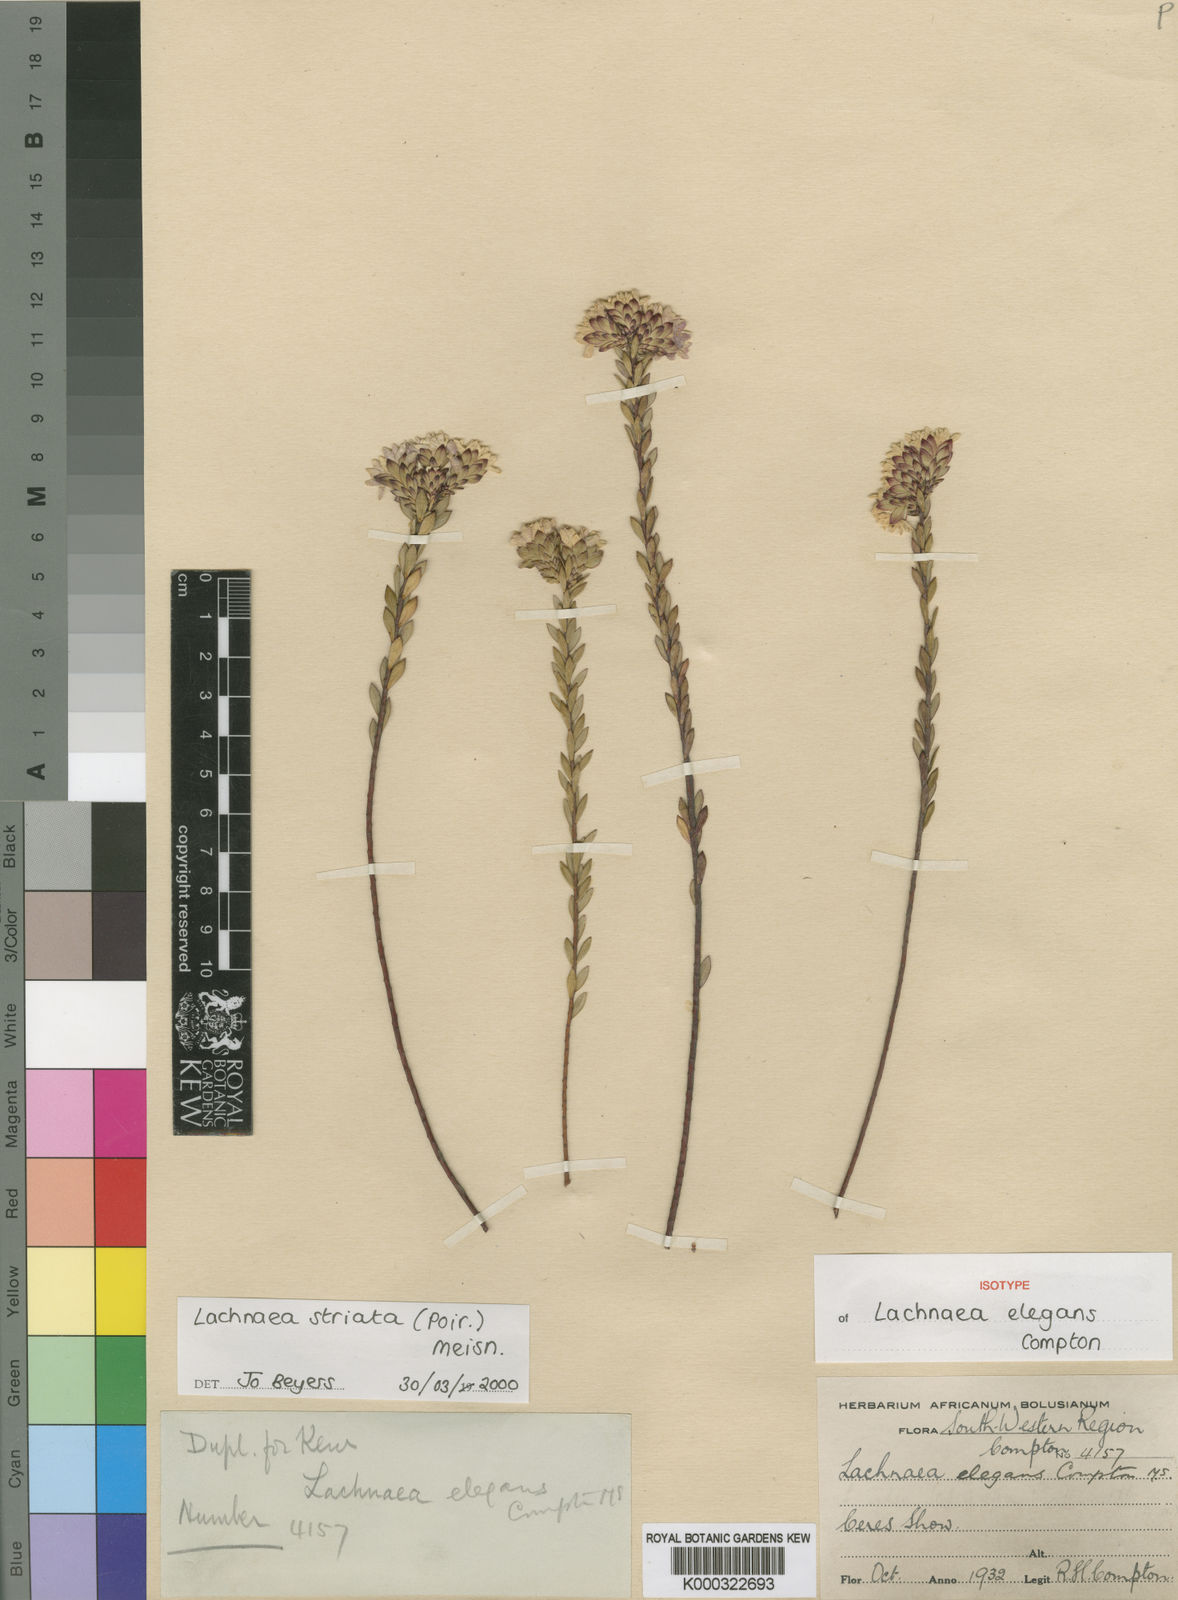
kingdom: Plantae
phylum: Tracheophyta
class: Magnoliopsida
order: Malvales
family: Thymelaeaceae
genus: Lachnaea
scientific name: Lachnaea striata
